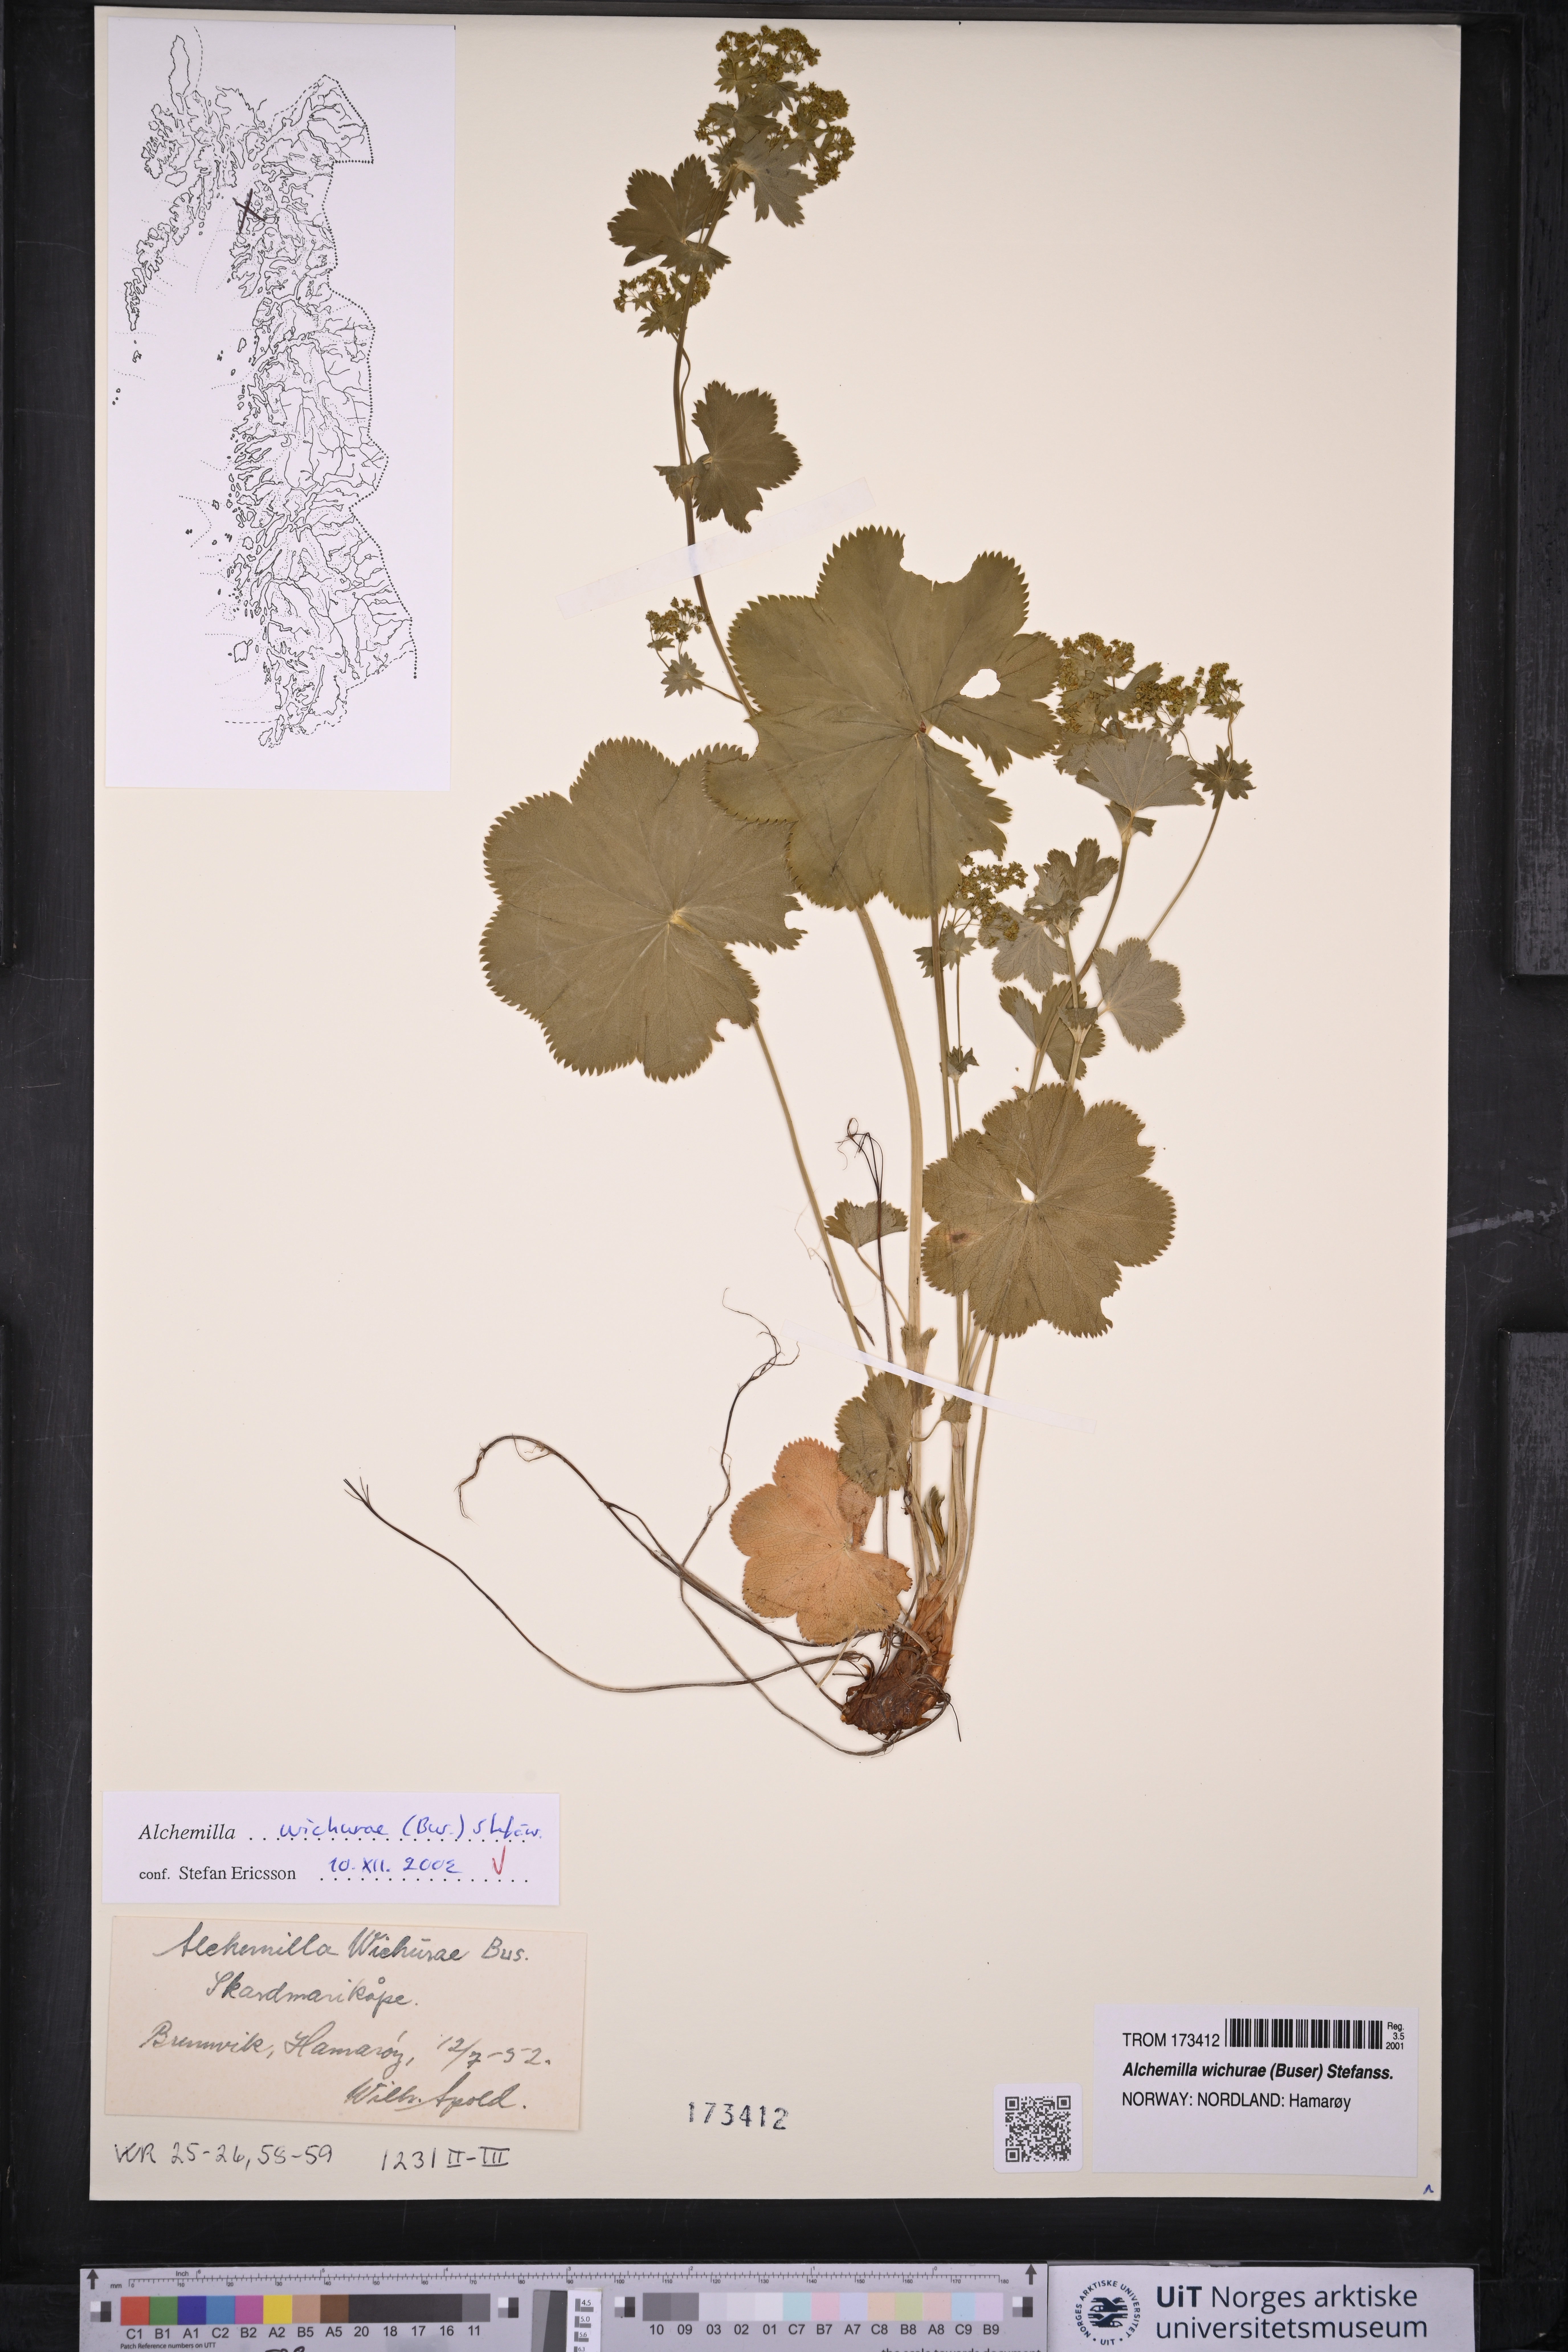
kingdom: Plantae
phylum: Tracheophyta
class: Magnoliopsida
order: Rosales
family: Rosaceae
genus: Alchemilla
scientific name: Alchemilla wichurae
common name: Rock lady's mantle
